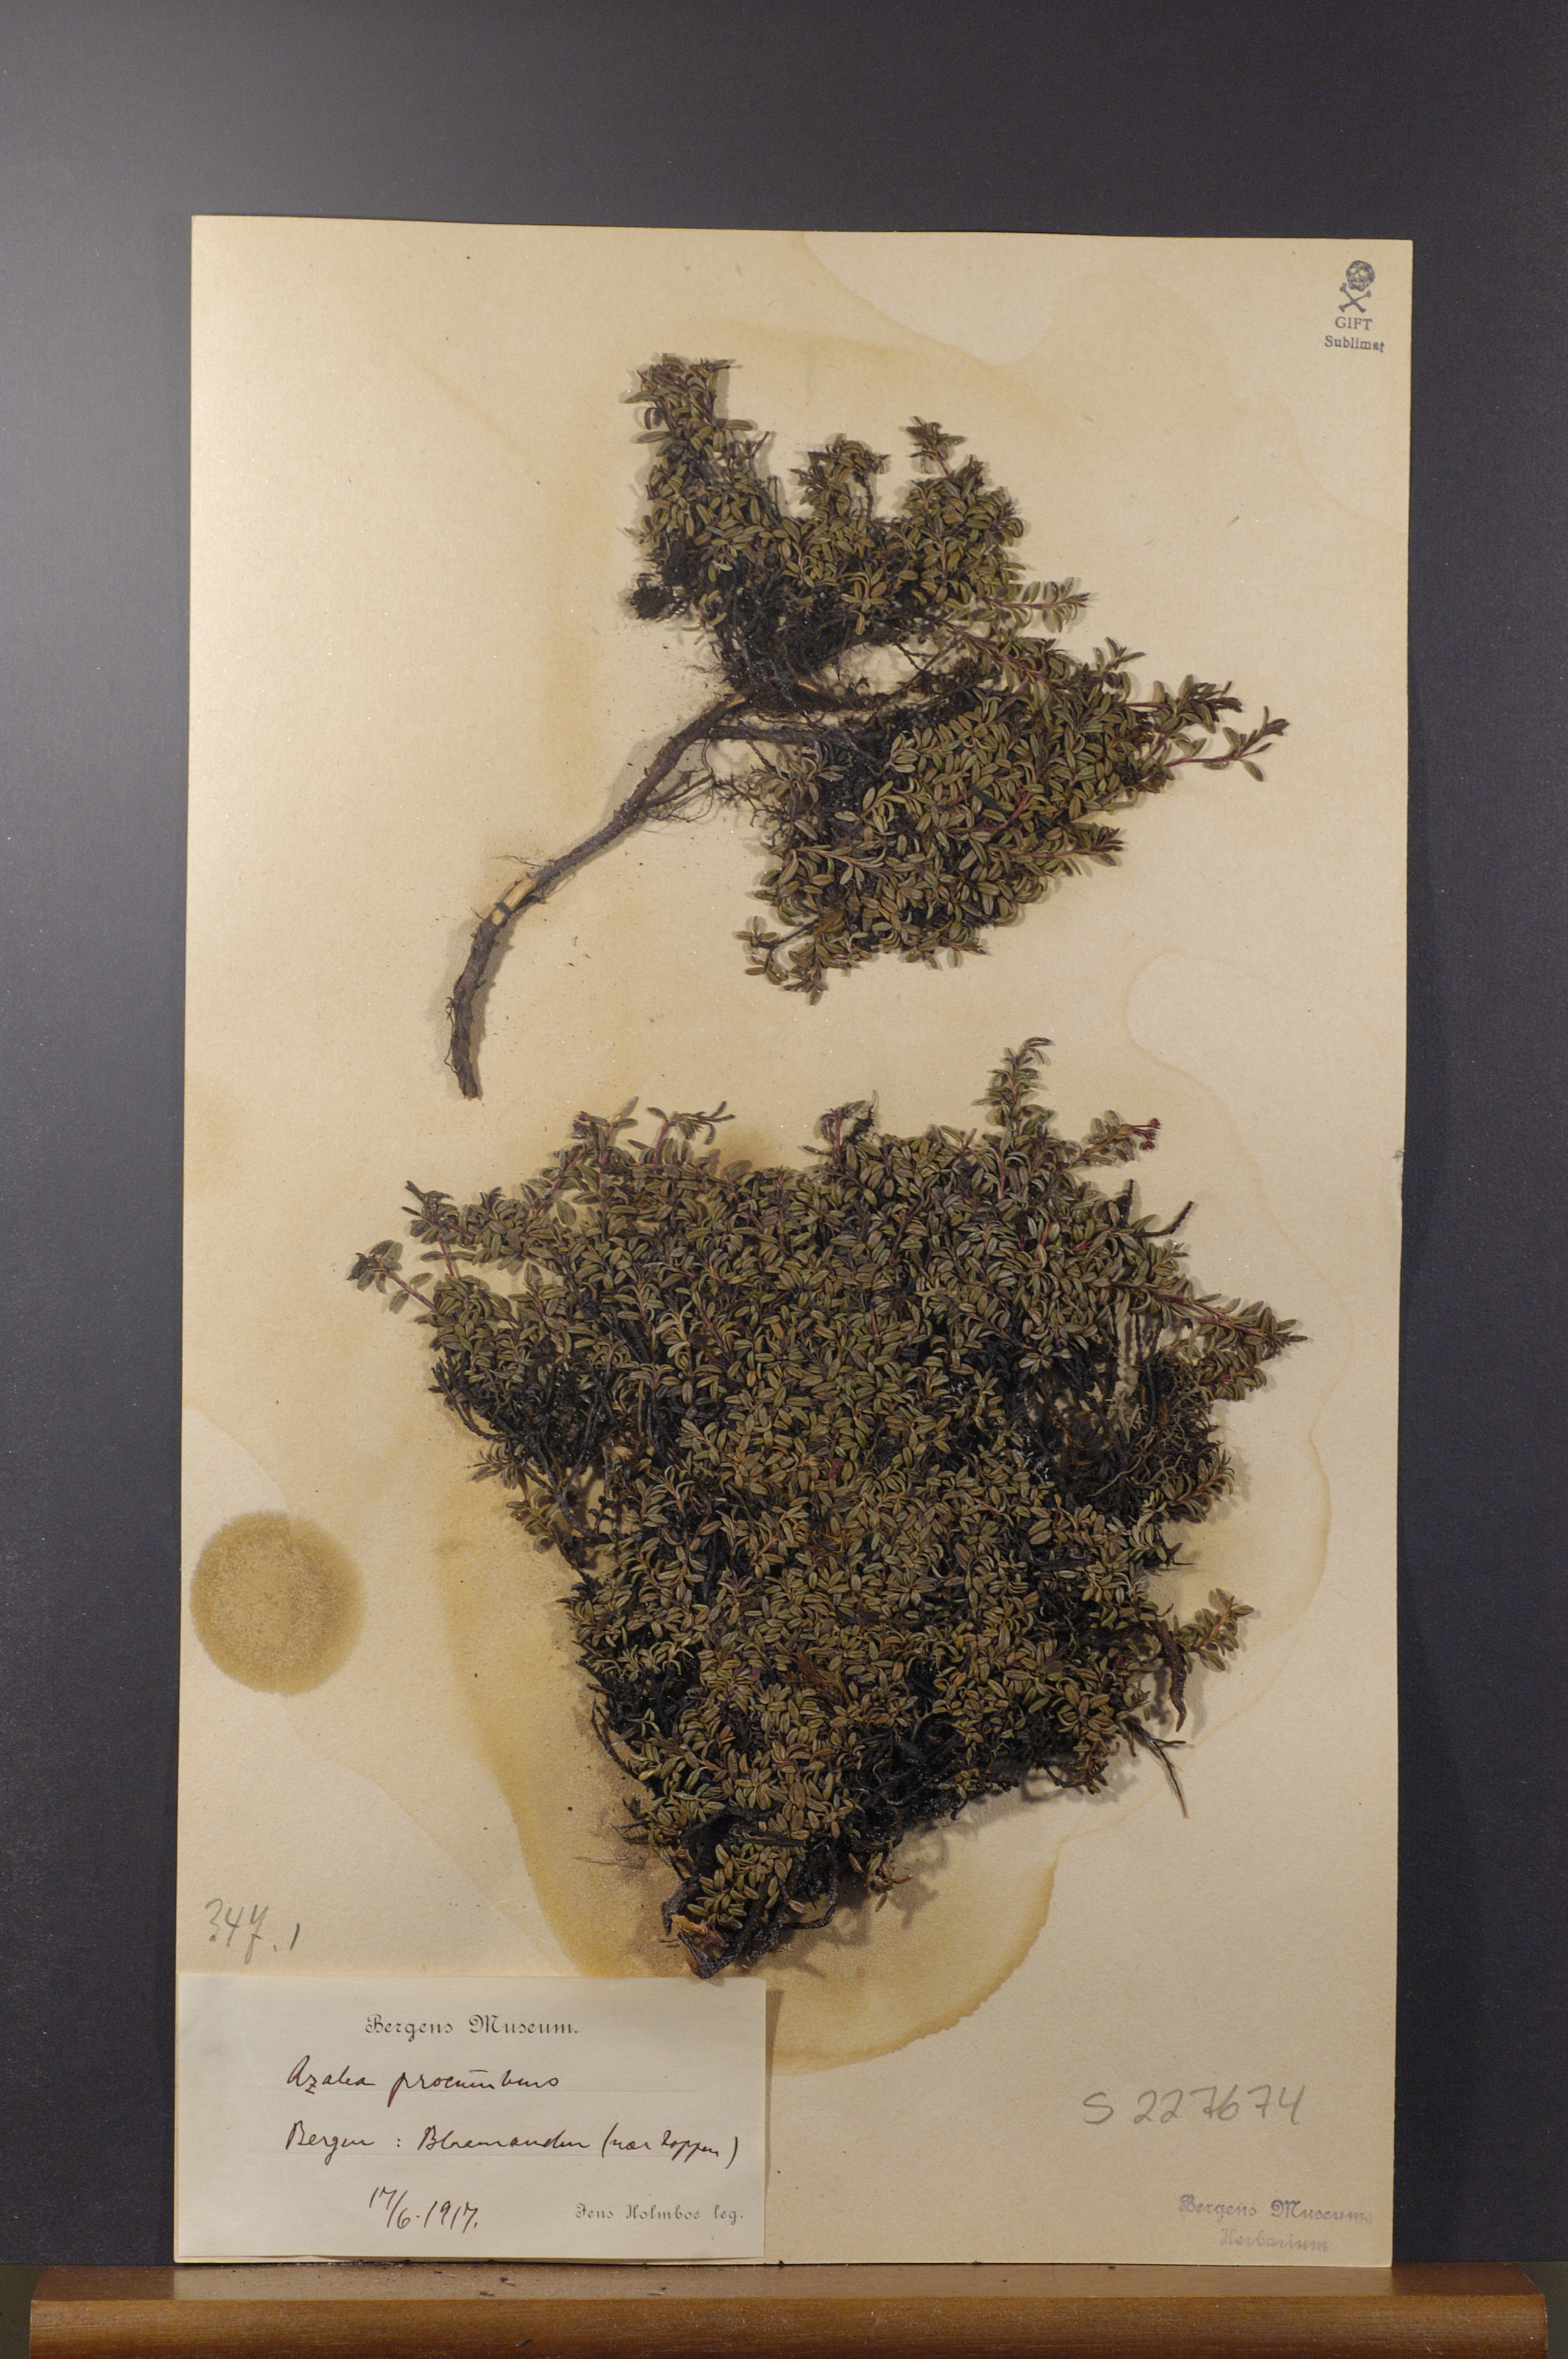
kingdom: Plantae
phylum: Tracheophyta
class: Magnoliopsida
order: Ericales
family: Ericaceae
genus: Kalmia
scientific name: Kalmia procumbens
